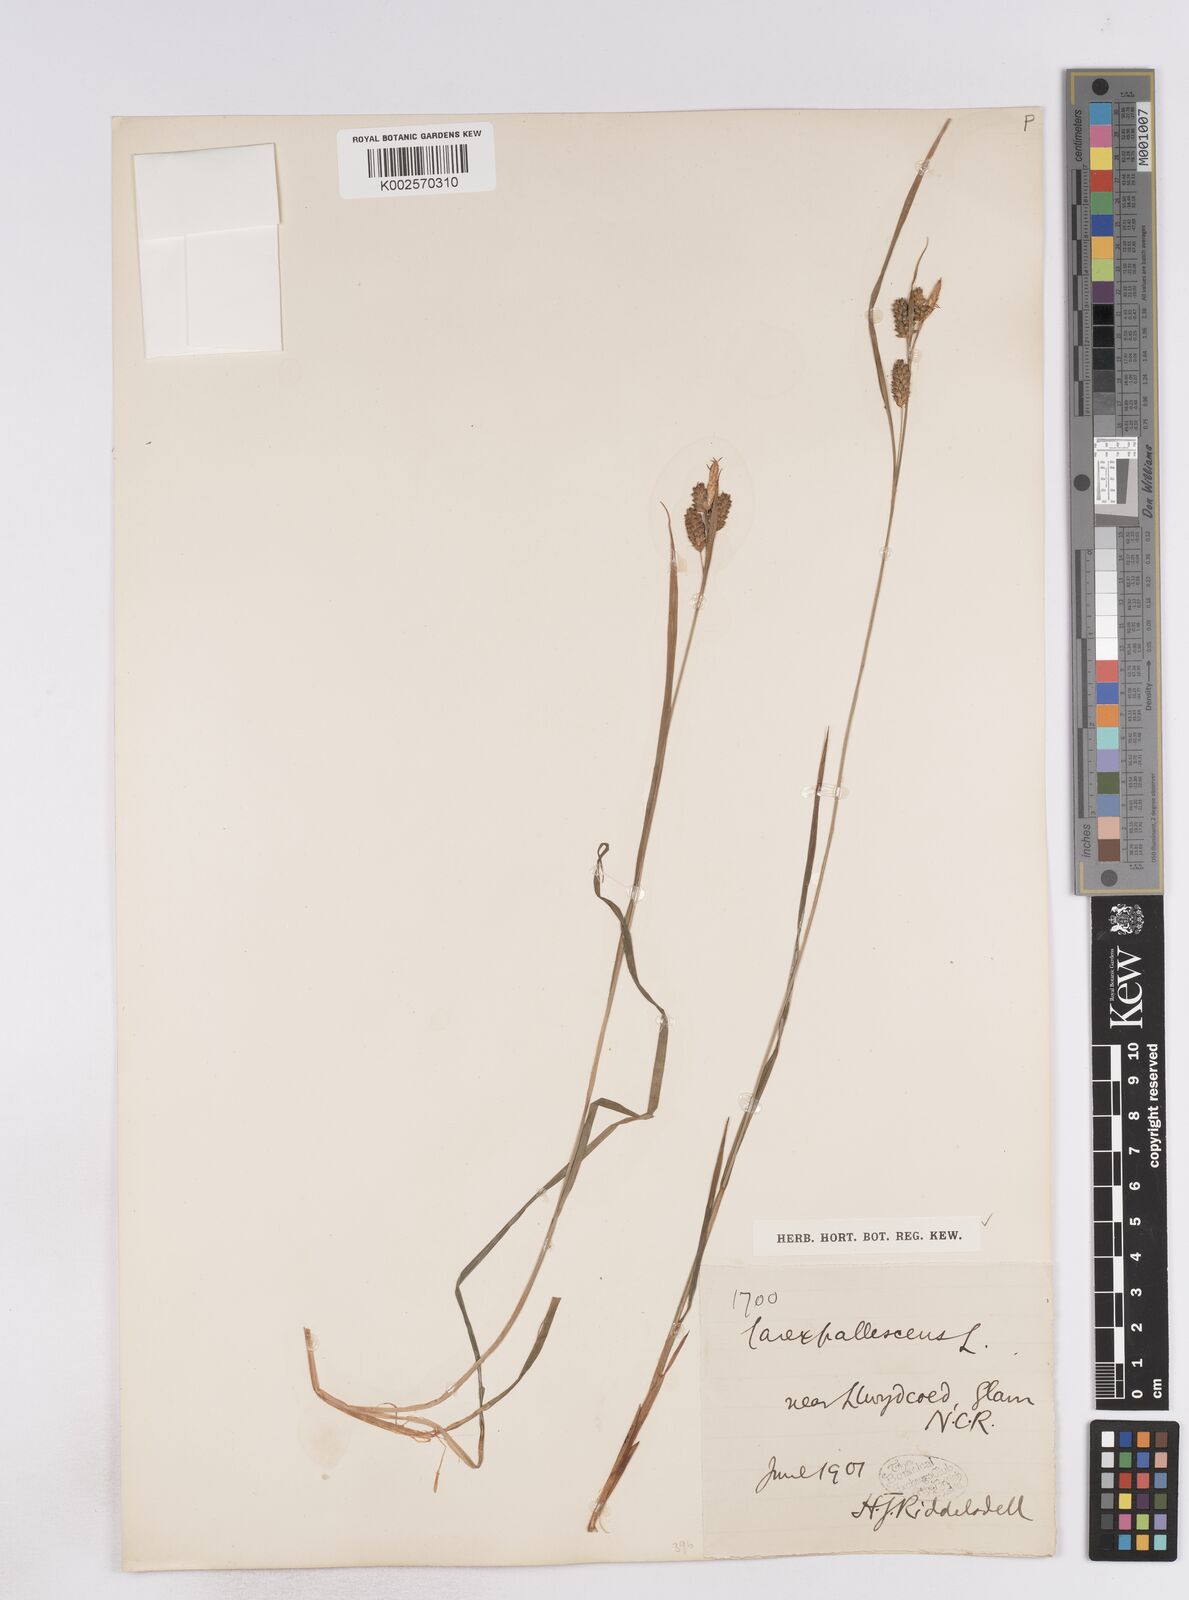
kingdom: Plantae
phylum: Tracheophyta
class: Liliopsida
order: Poales
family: Cyperaceae
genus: Carex
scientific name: Carex pallescens
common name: Pale sedge
